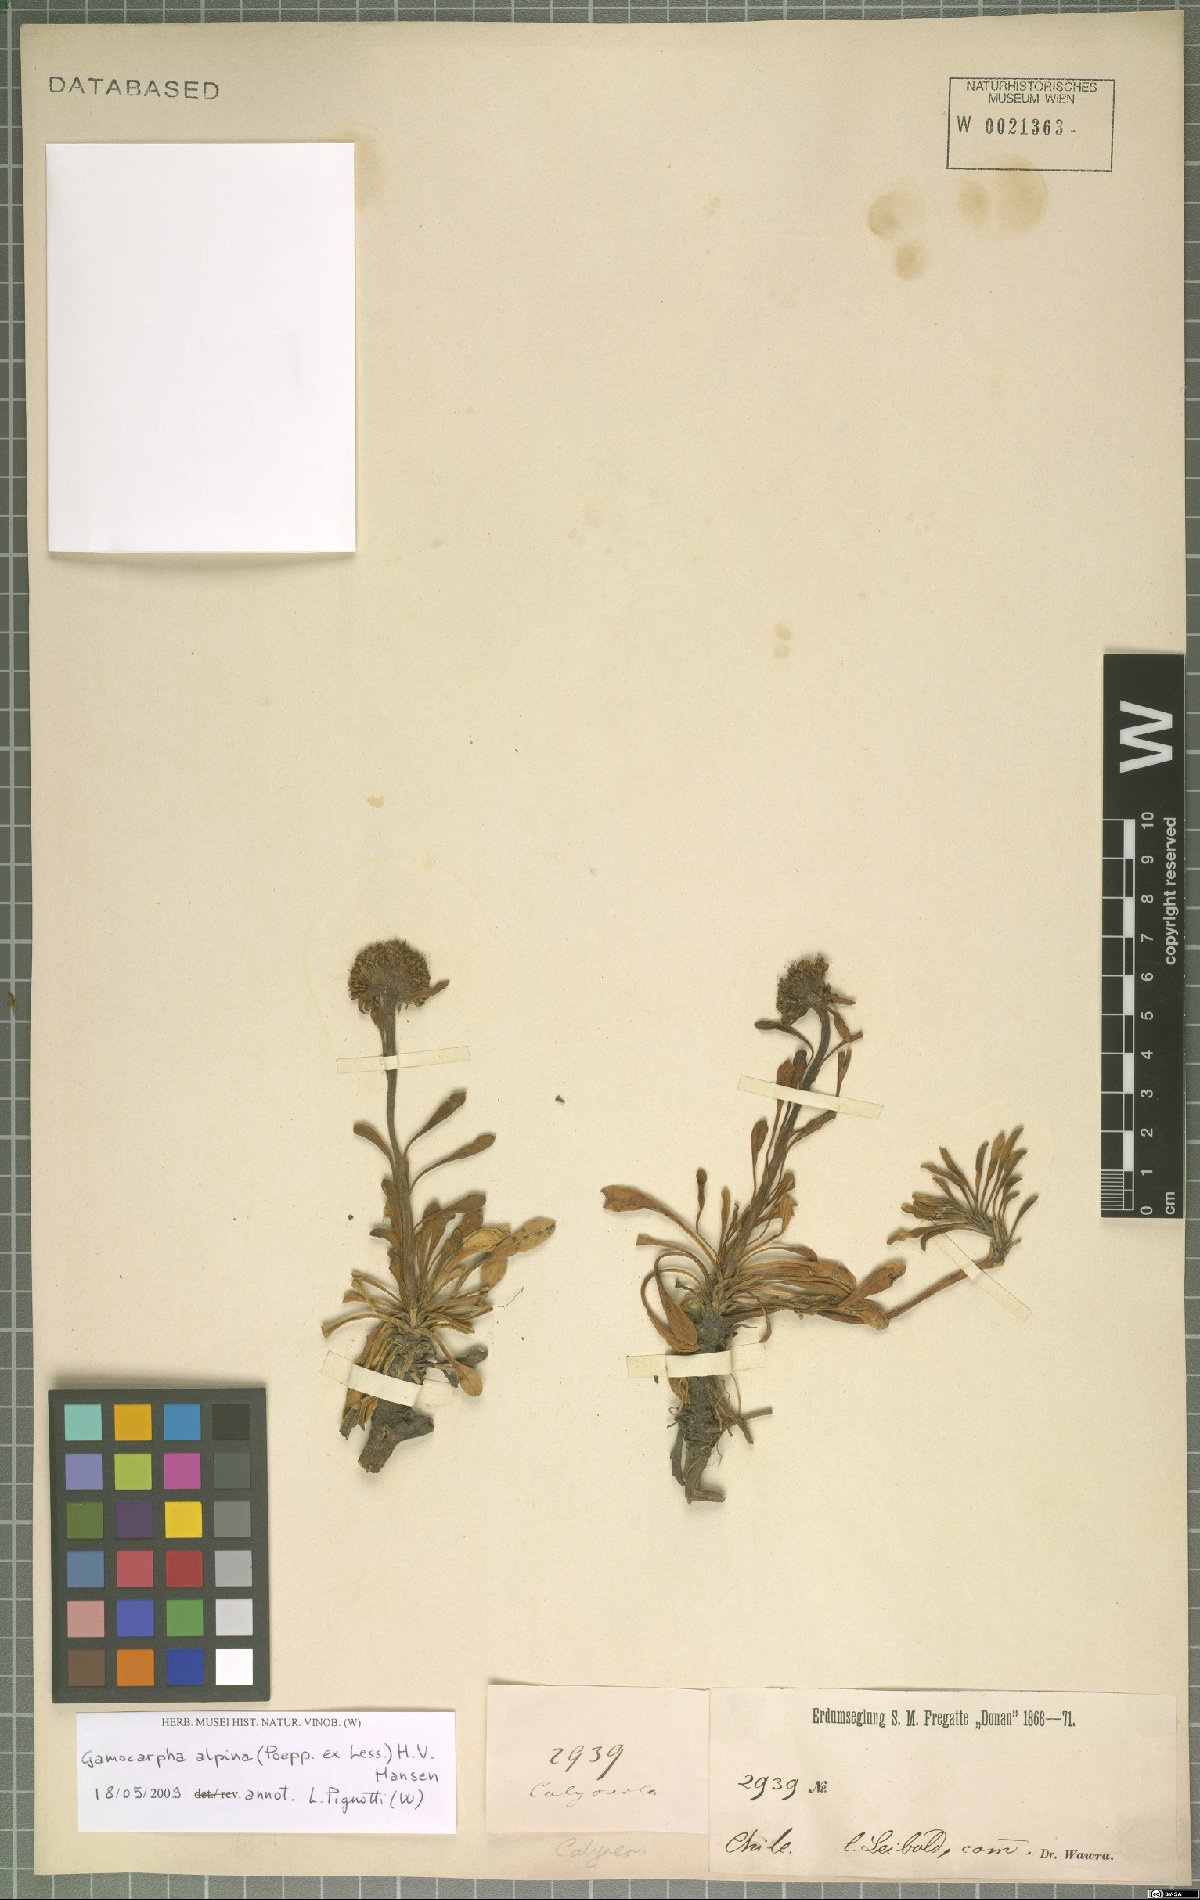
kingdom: Plantae
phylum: Tracheophyta
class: Magnoliopsida
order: Asterales
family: Calyceraceae
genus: Gamocarpha
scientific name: Gamocarpha alpina
